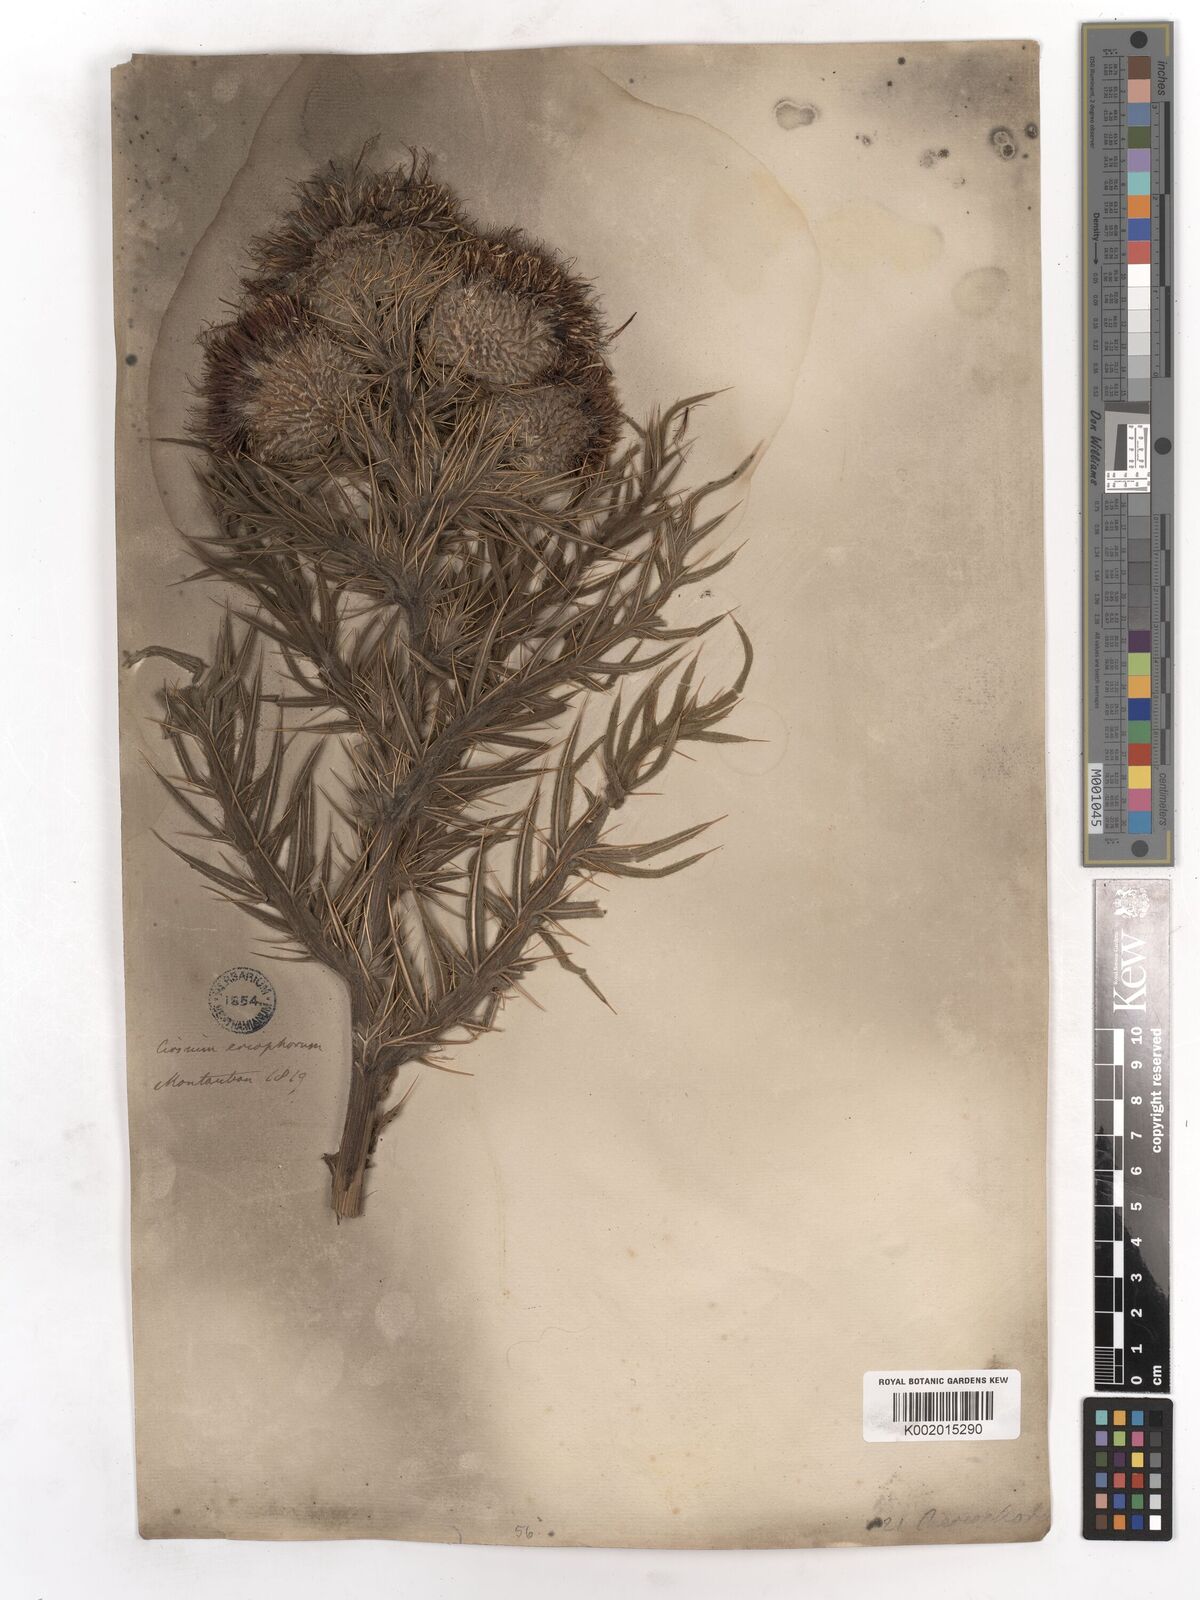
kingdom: Plantae
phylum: Tracheophyta
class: Magnoliopsida
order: Asterales
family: Asteraceae
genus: Lophiolepis
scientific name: Lophiolepis eriophora
